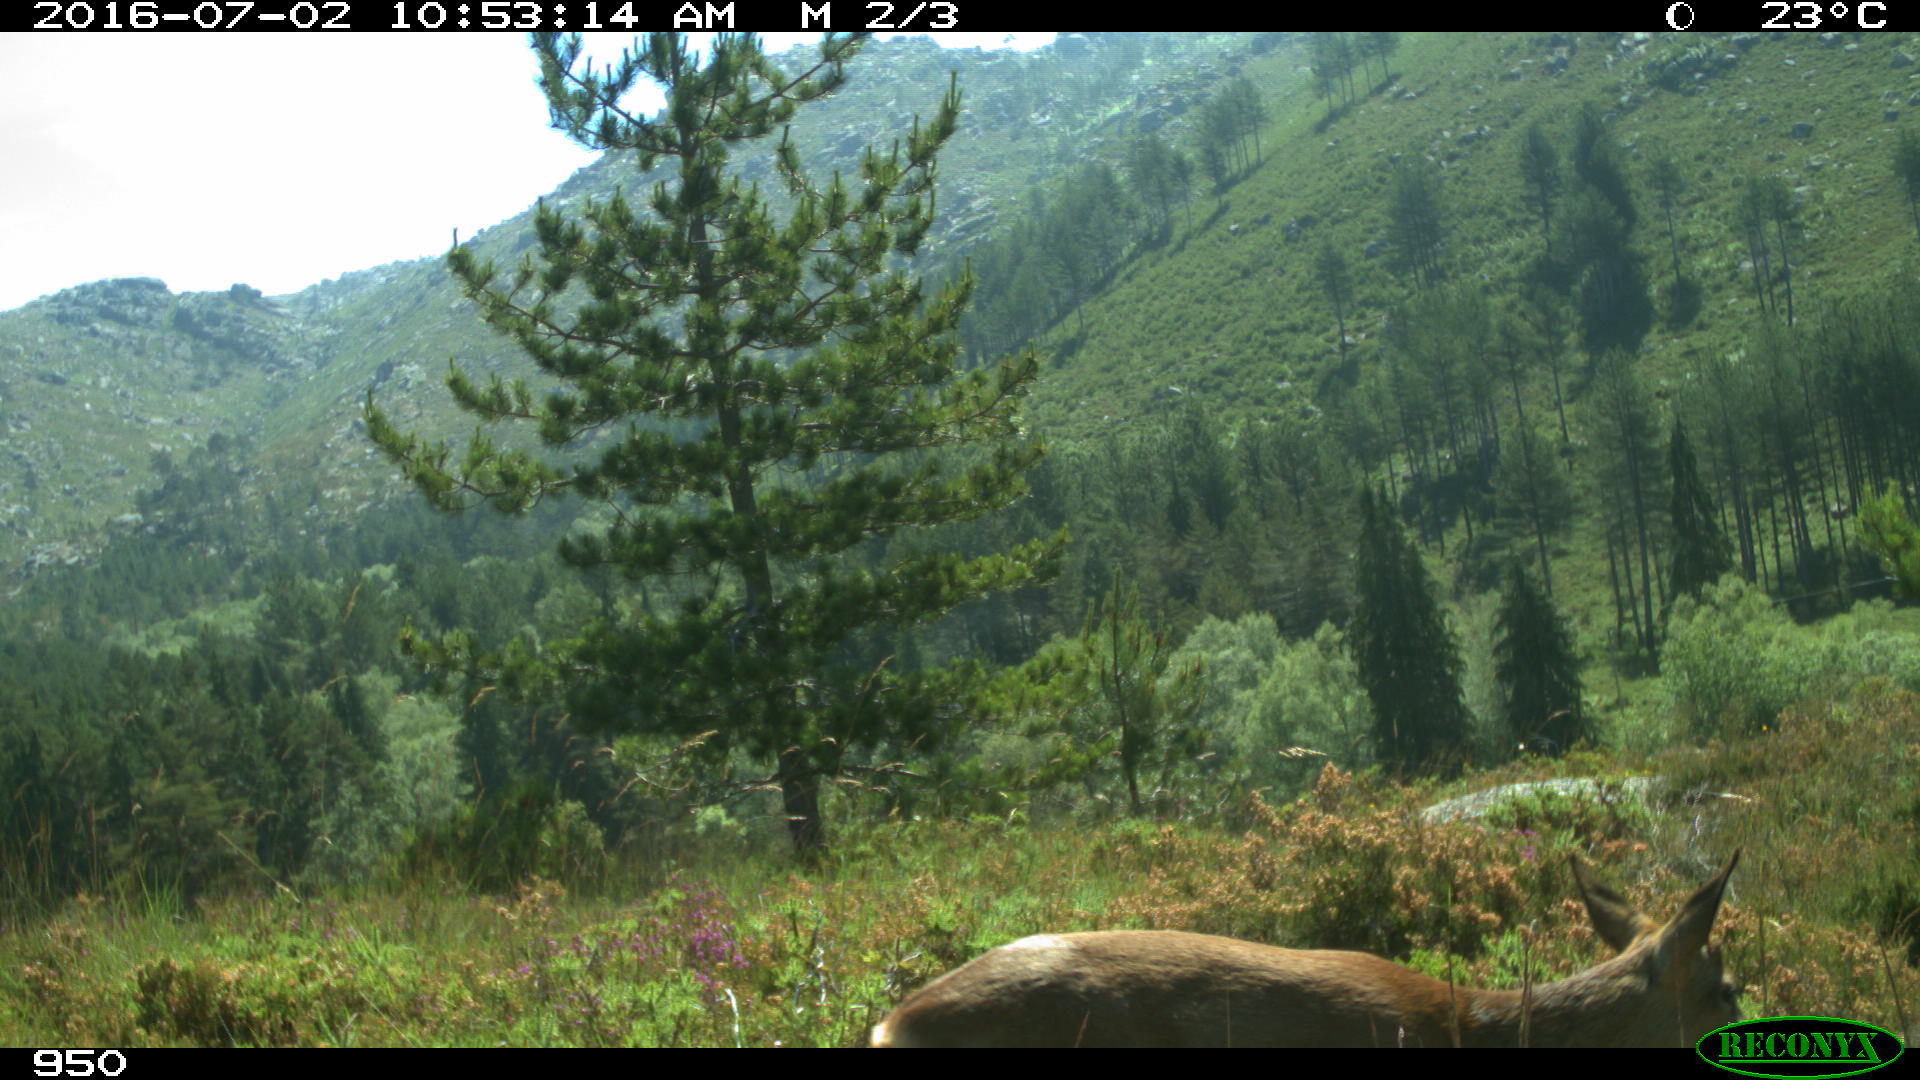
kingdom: Animalia
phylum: Chordata
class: Mammalia
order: Artiodactyla
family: Cervidae
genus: Capreolus
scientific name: Capreolus capreolus
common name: Western roe deer
